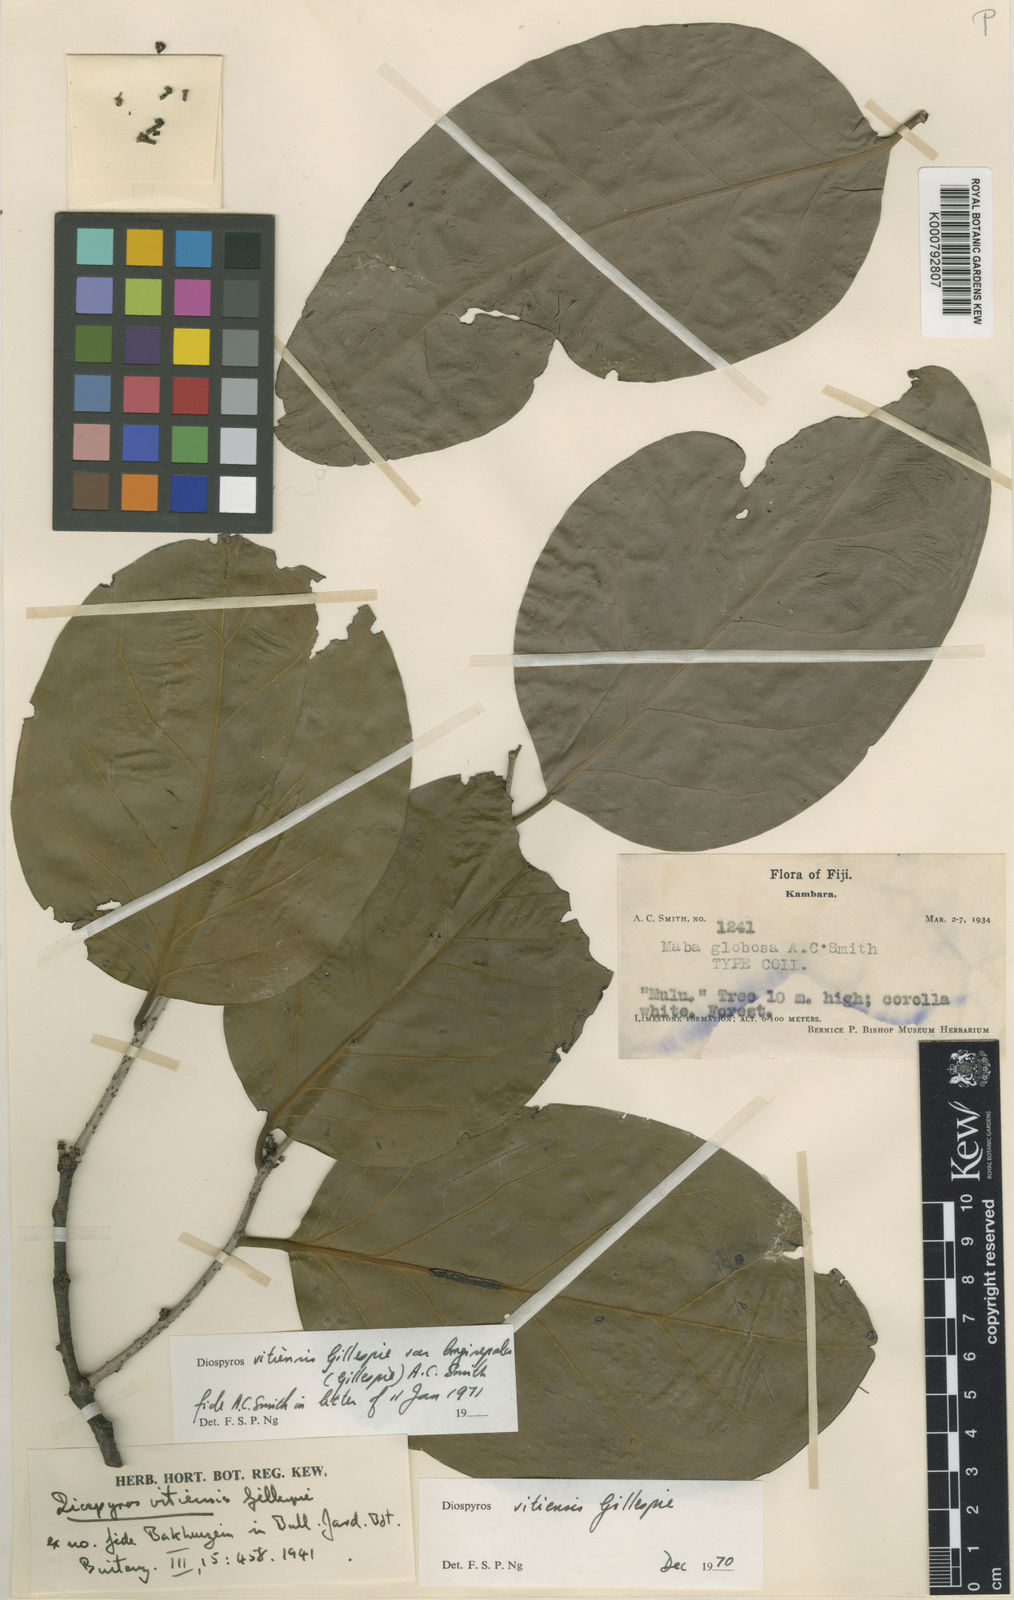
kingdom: Plantae
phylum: Tracheophyta
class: Magnoliopsida
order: Ericales
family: Ebenaceae
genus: Diospyros
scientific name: Diospyros vitiensis
